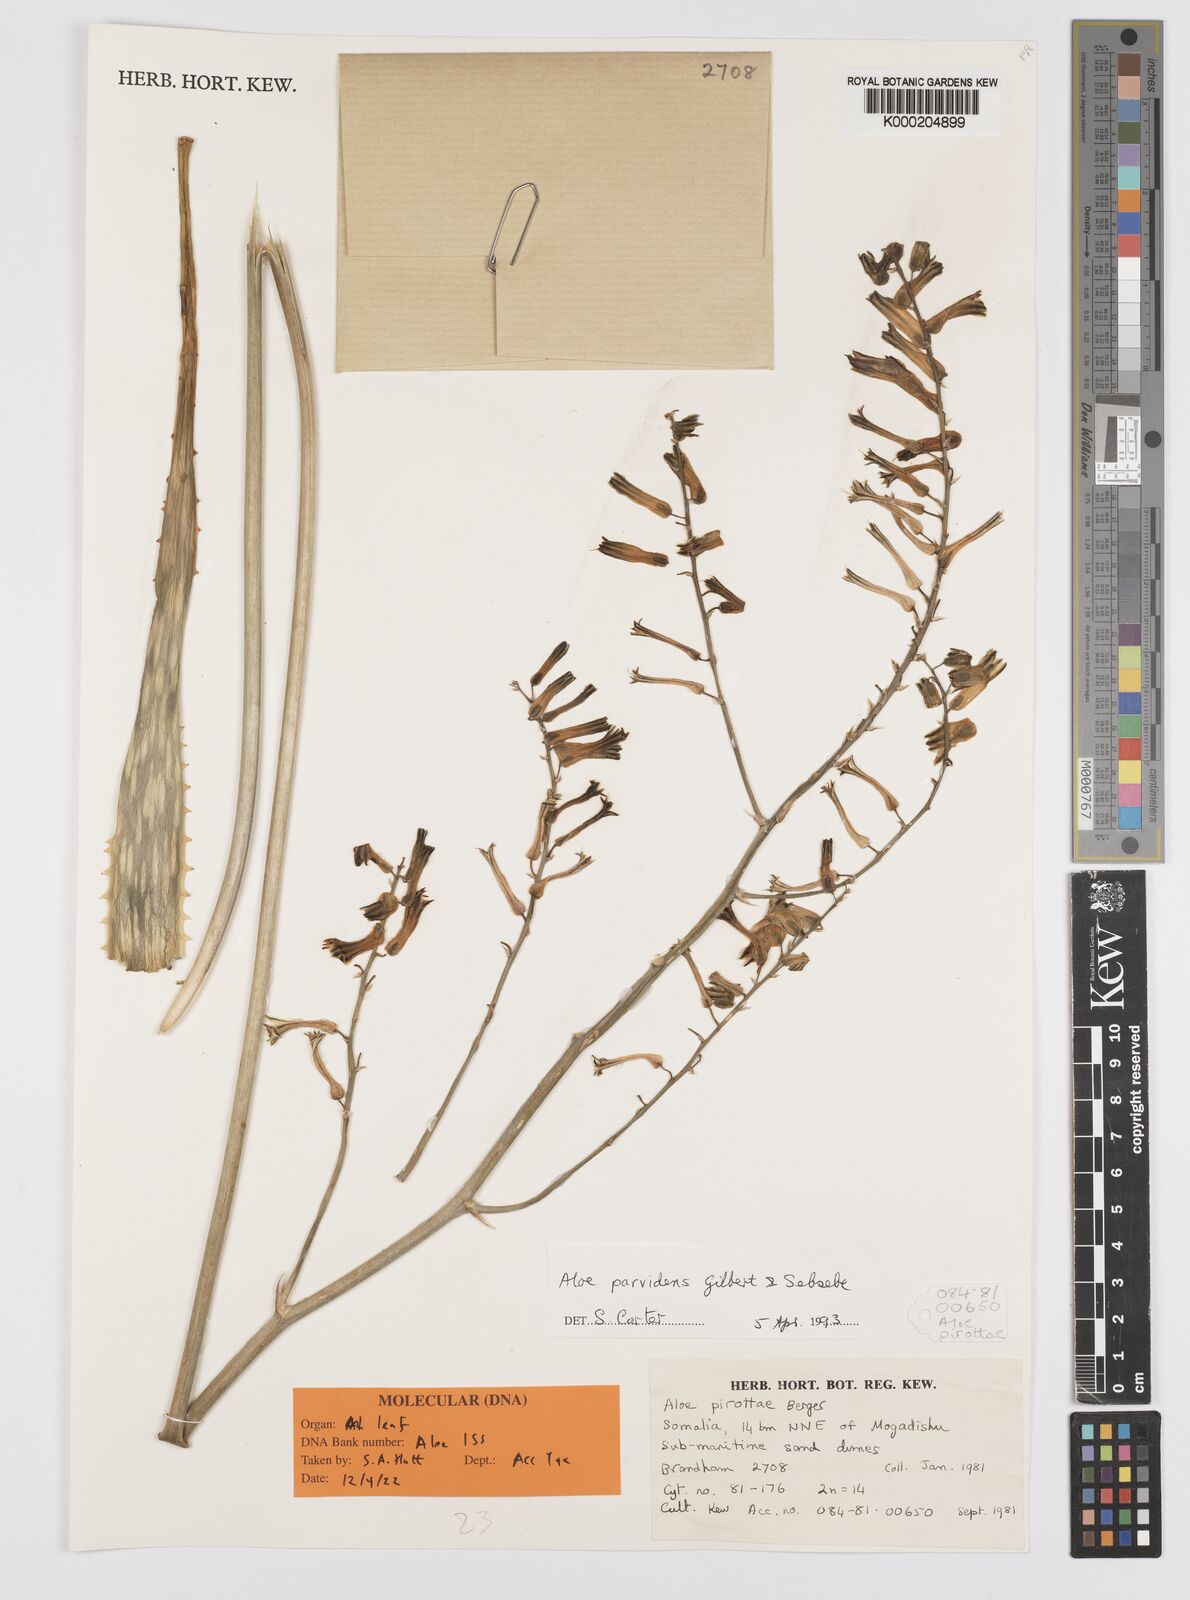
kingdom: Plantae
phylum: Tracheophyta
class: Liliopsida
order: Asparagales
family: Asphodelaceae
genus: Aloe
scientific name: Aloe parvidens
